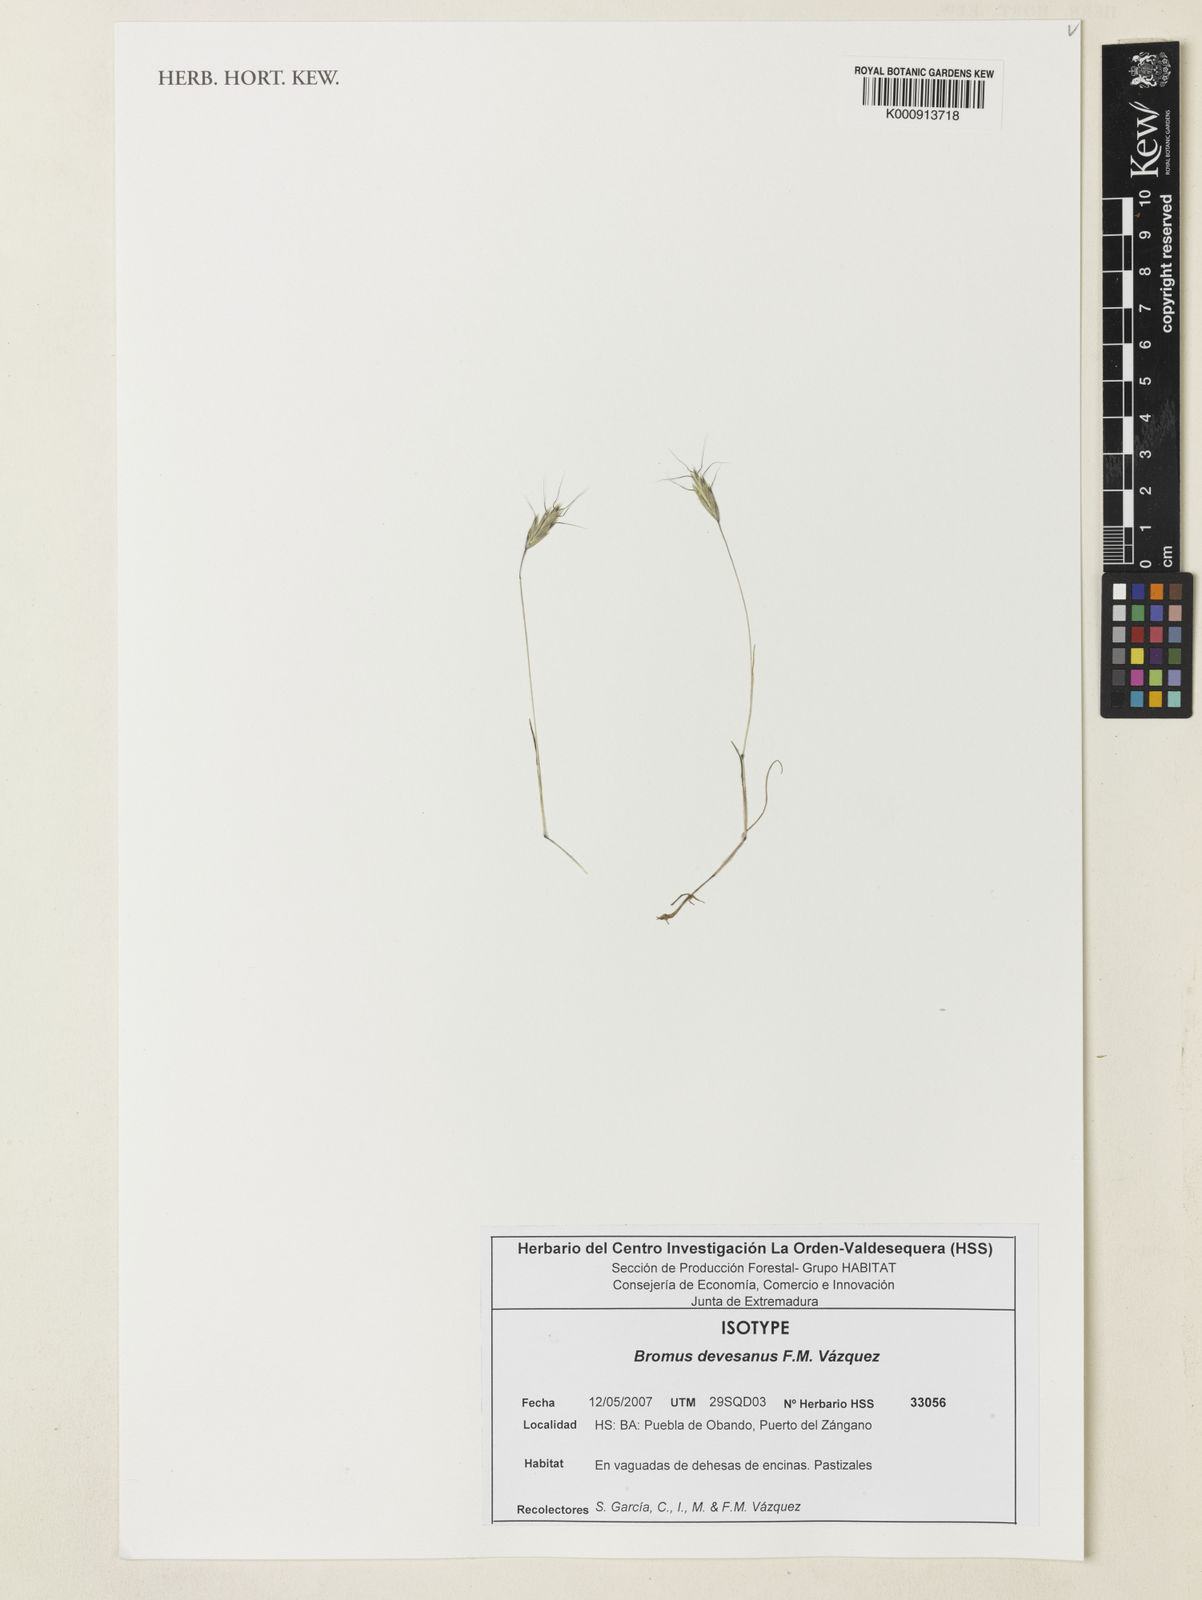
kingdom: Plantae
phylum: Tracheophyta
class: Liliopsida
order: Poales
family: Poaceae
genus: Bromus
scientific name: Bromus
